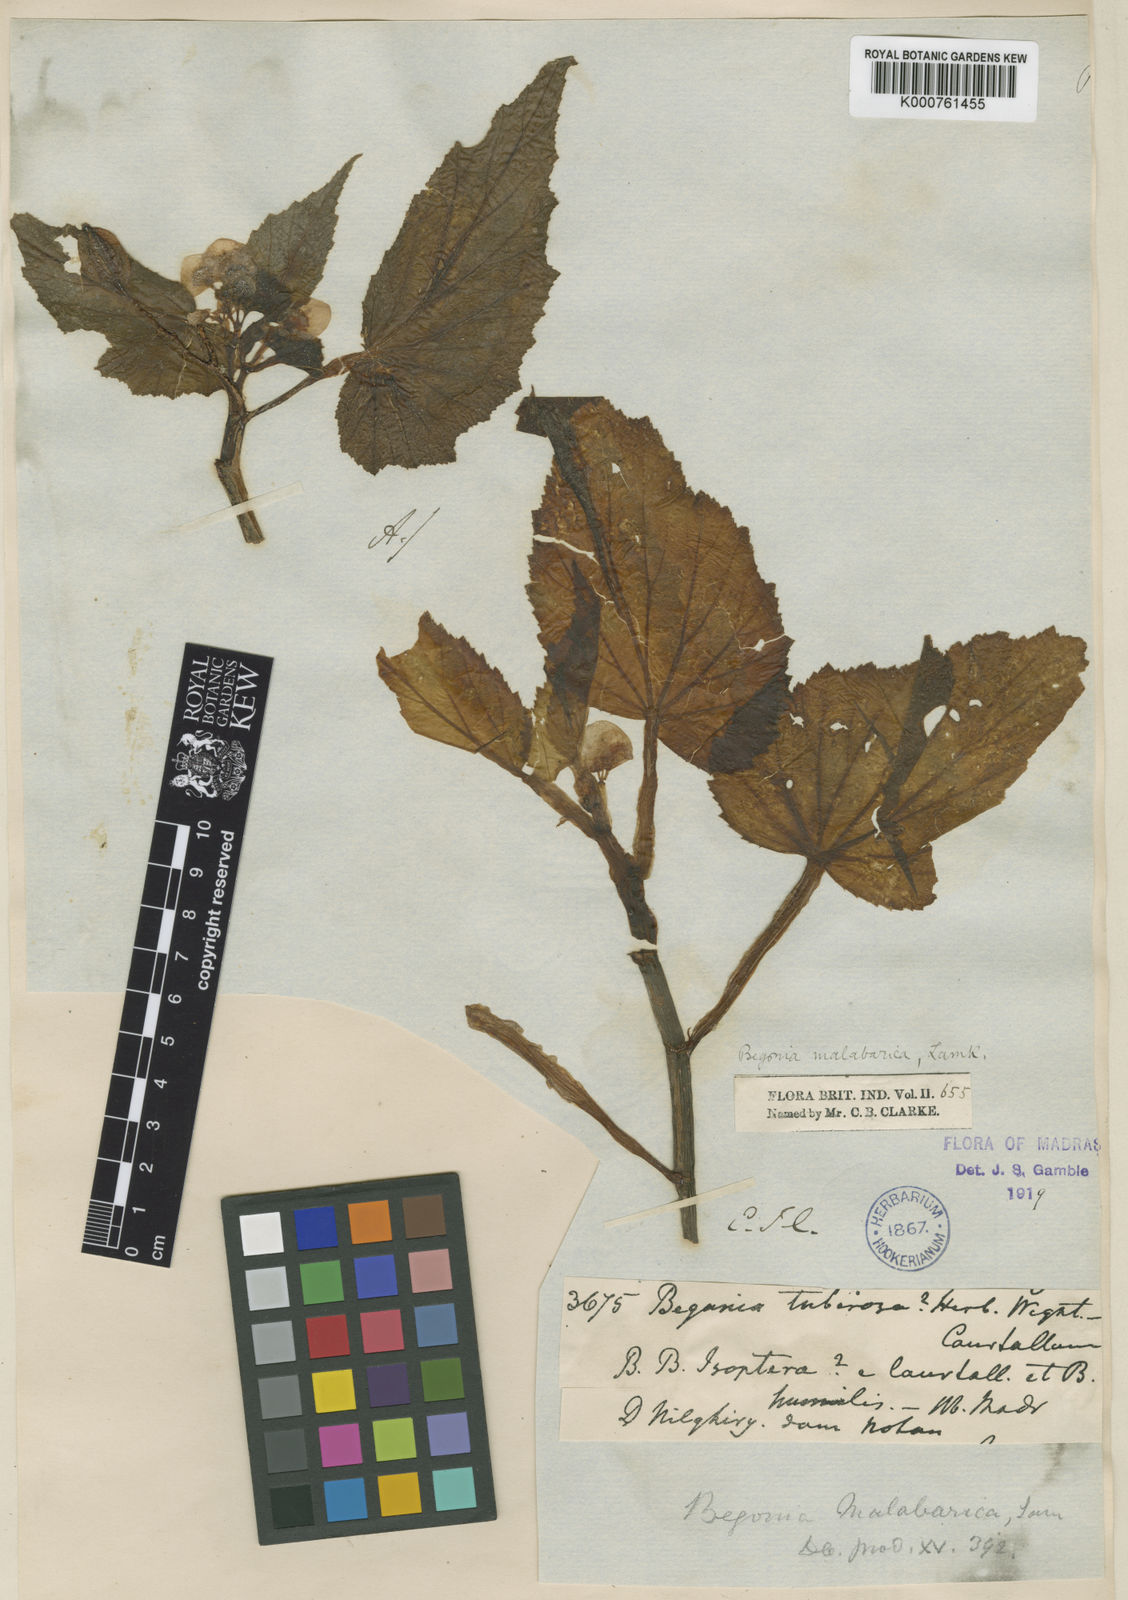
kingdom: Plantae
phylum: Tracheophyta
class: Magnoliopsida
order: Cucurbitales
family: Begoniaceae
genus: Begonia
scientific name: Begonia malabarica
